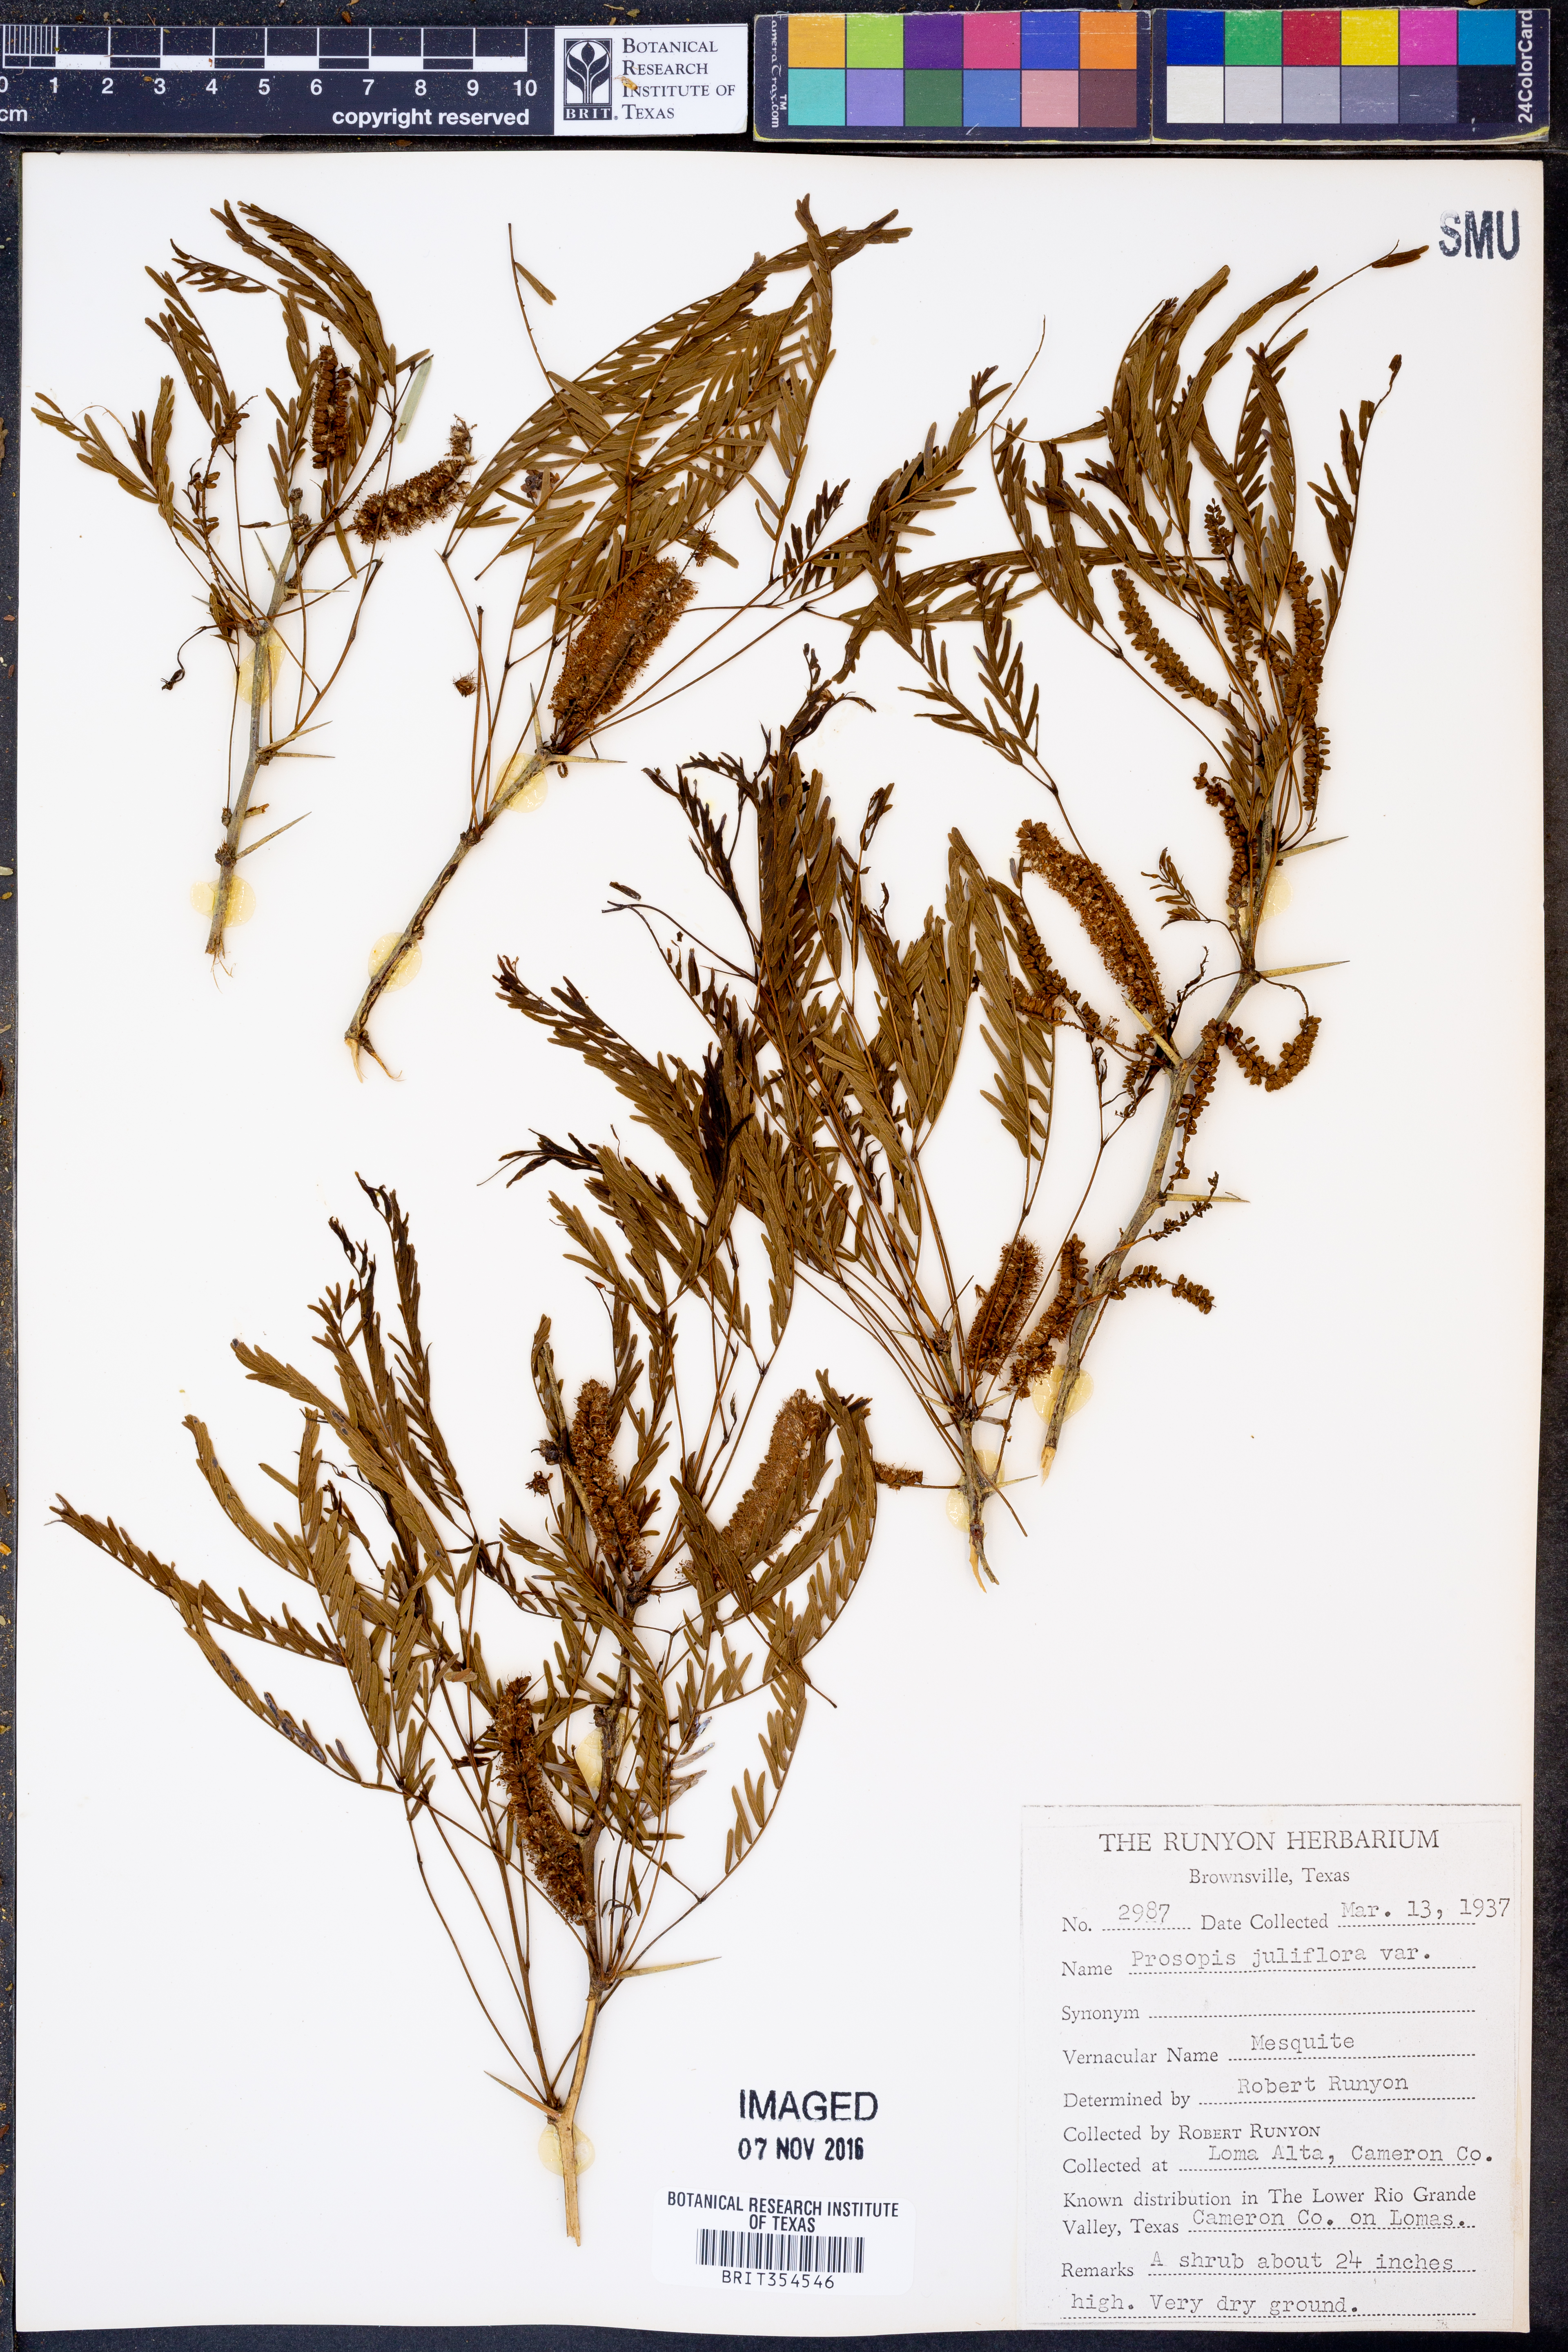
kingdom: Plantae
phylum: Tracheophyta
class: Magnoliopsida
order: Fabales
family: Fabaceae
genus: Prosopis
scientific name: Prosopis juliflora
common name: Mesquite
